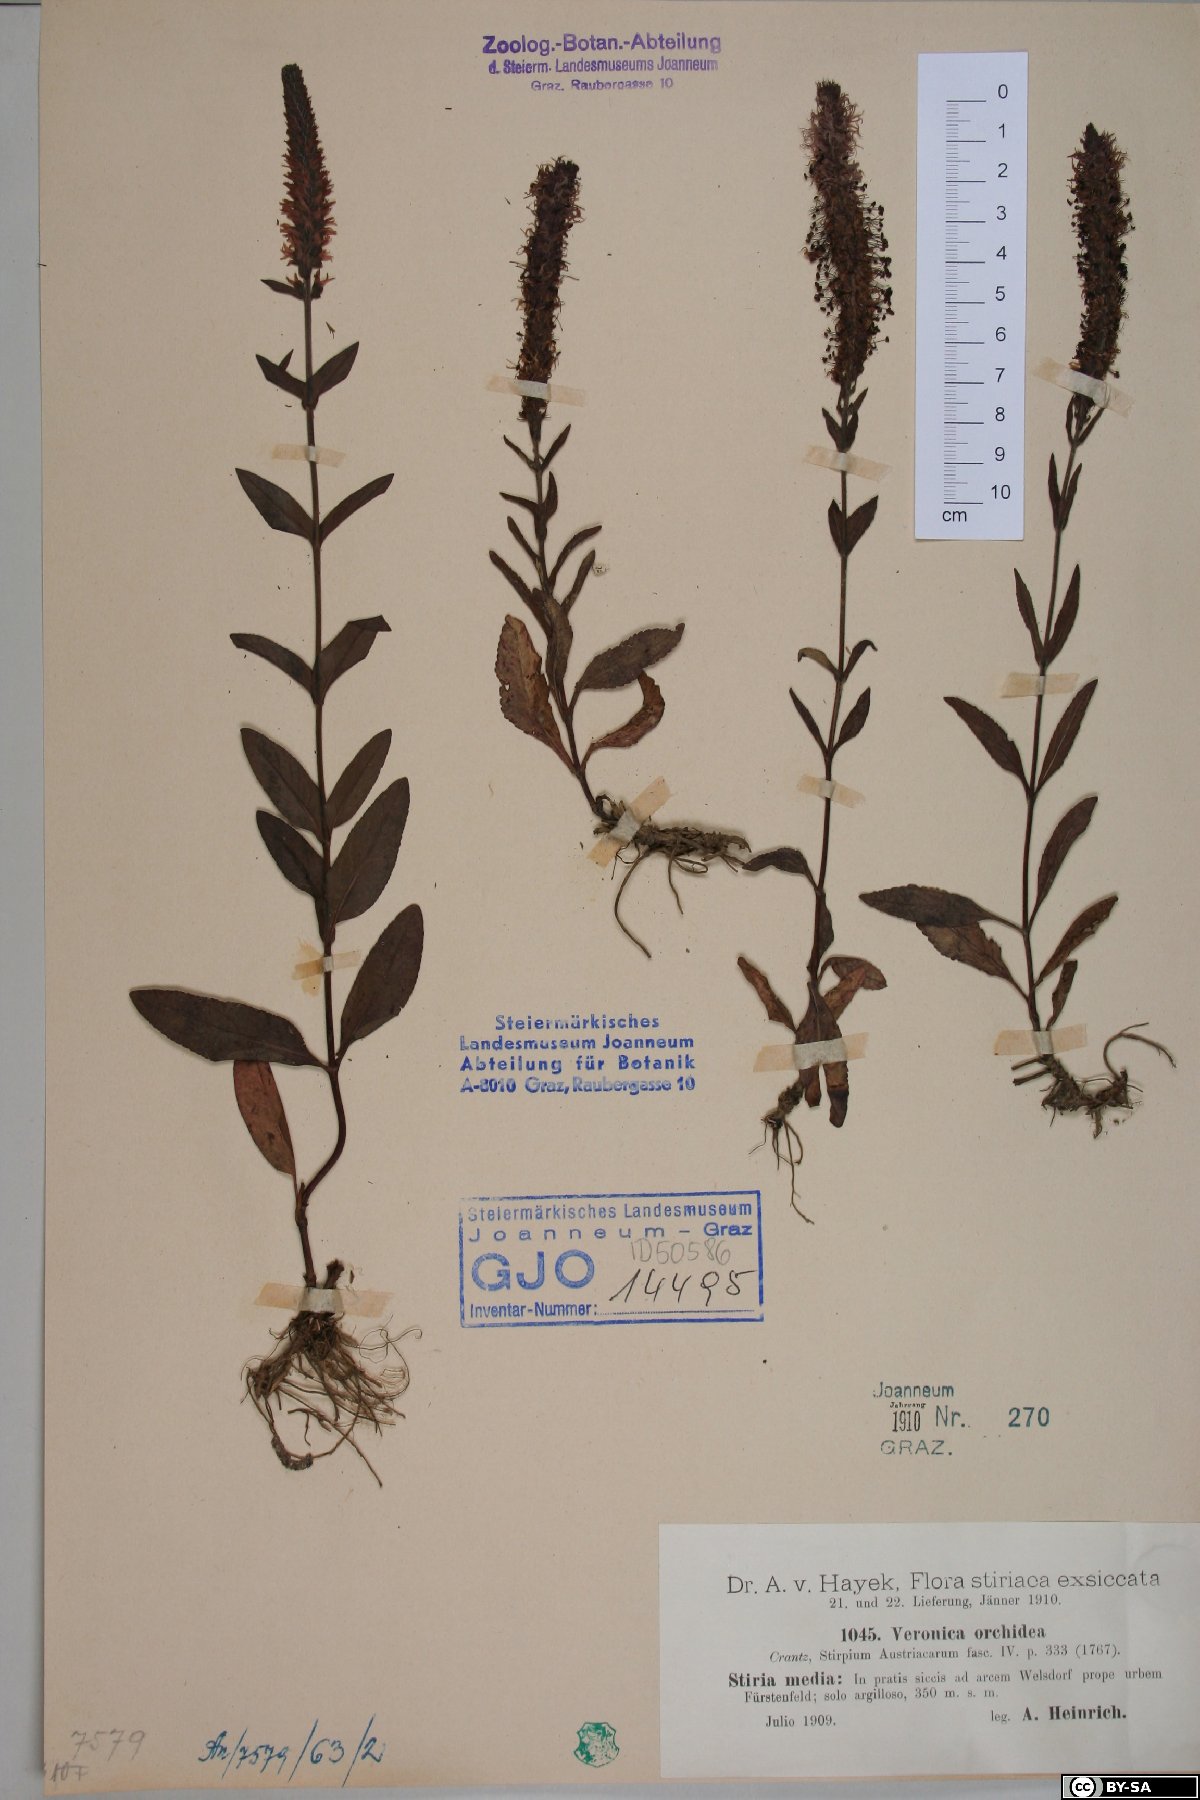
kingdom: Plantae
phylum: Tracheophyta
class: Magnoliopsida
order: Lamiales
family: Plantaginaceae
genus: Veronica
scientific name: Veronica orchidea
